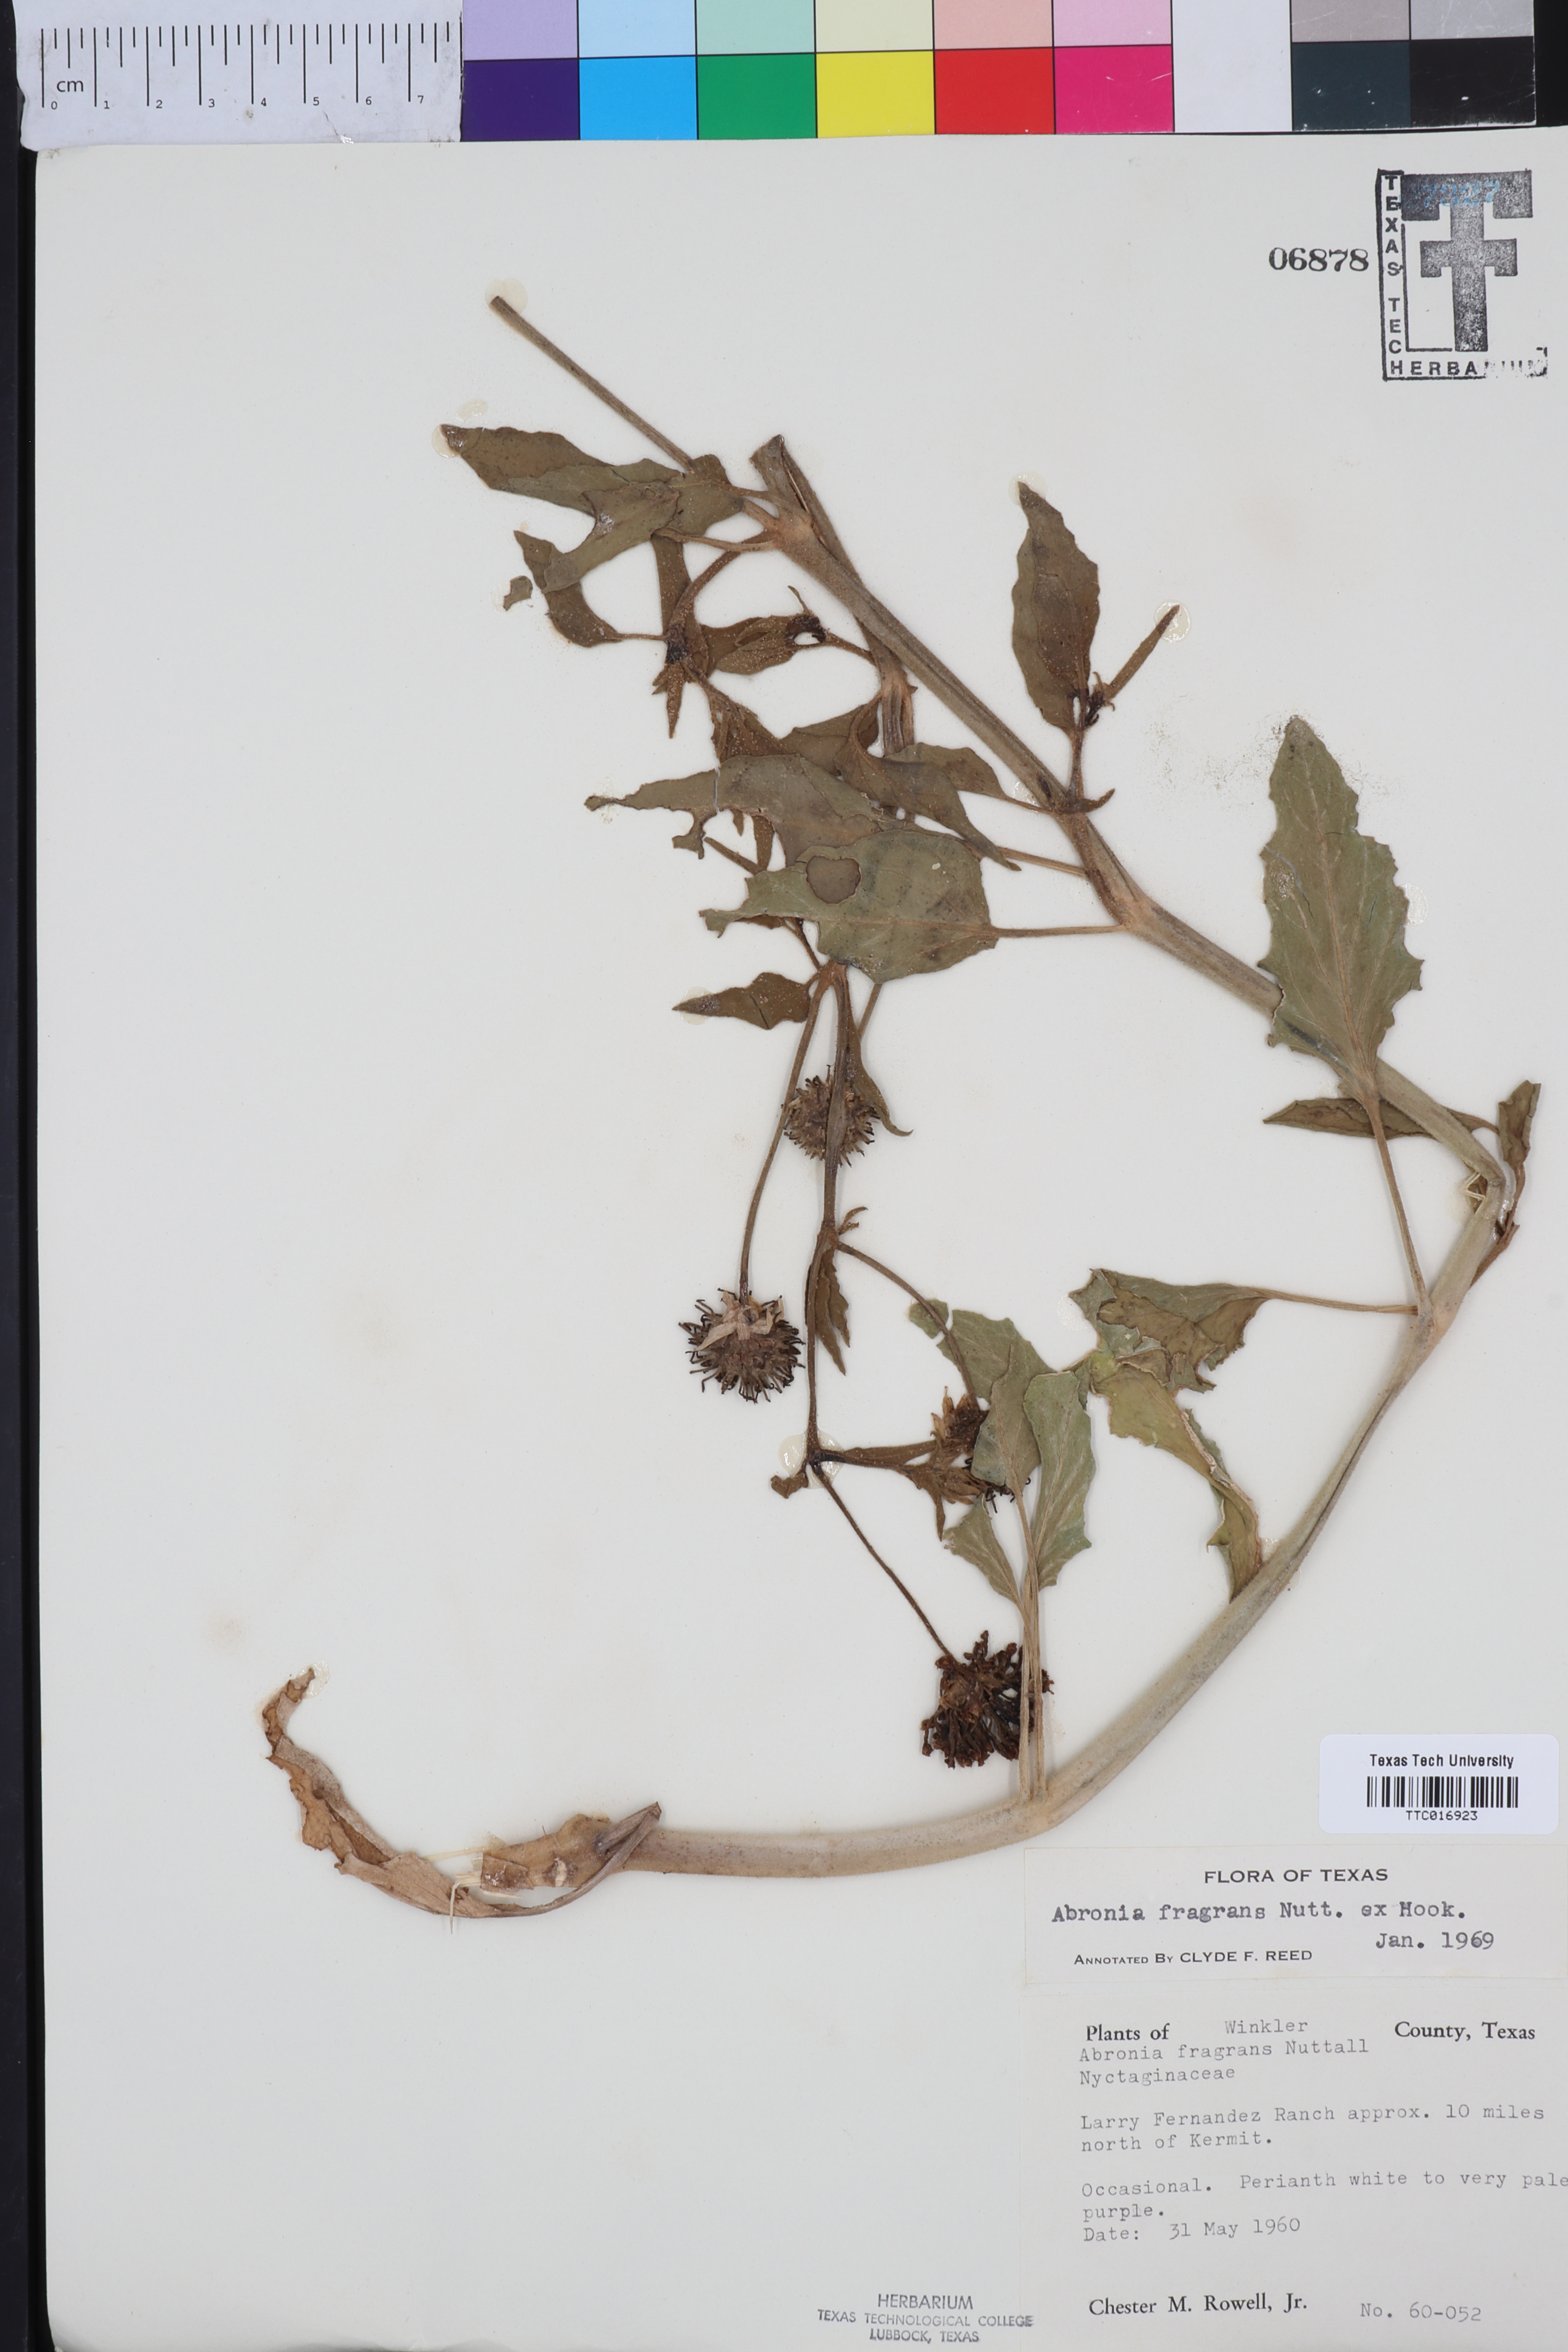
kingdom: Plantae
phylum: Tracheophyta
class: Magnoliopsida
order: Caryophyllales
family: Nyctaginaceae
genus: Abronia
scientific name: Abronia fragrans
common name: Fragrant sand-verbena
